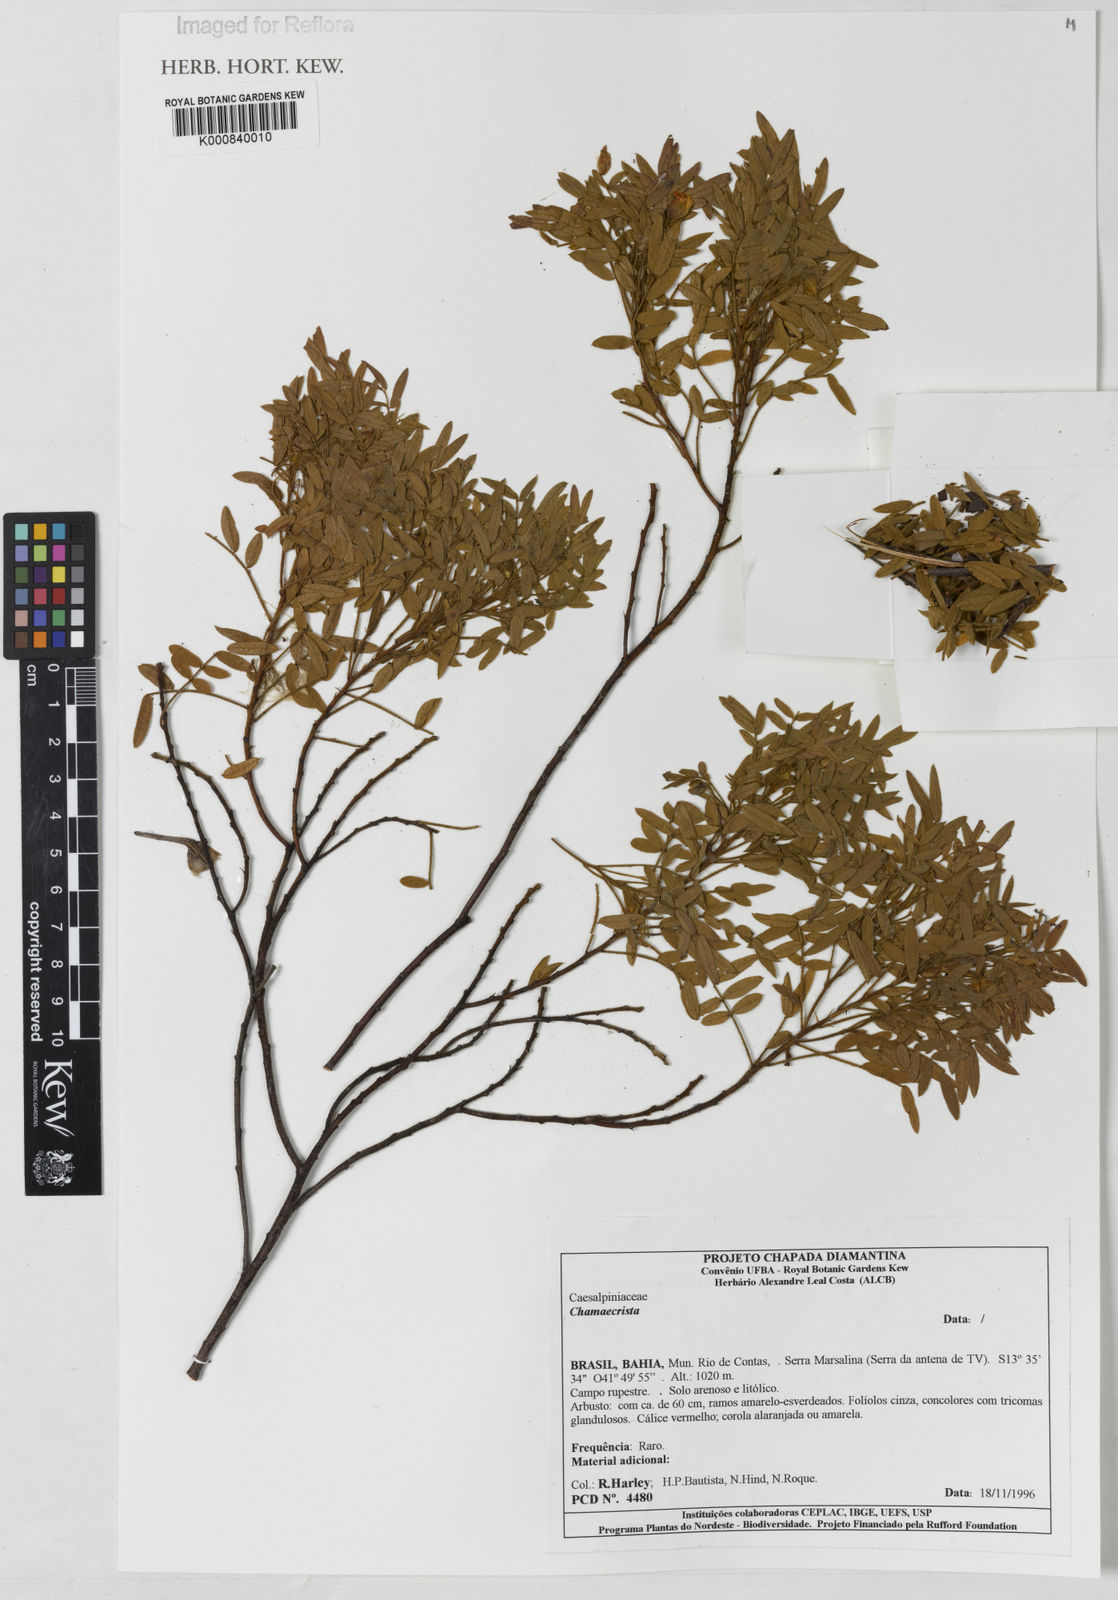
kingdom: Plantae
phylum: Tracheophyta
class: Magnoliopsida
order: Fabales
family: Fabaceae
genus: Chamaecrista
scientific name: Chamaecrista axilliflora
